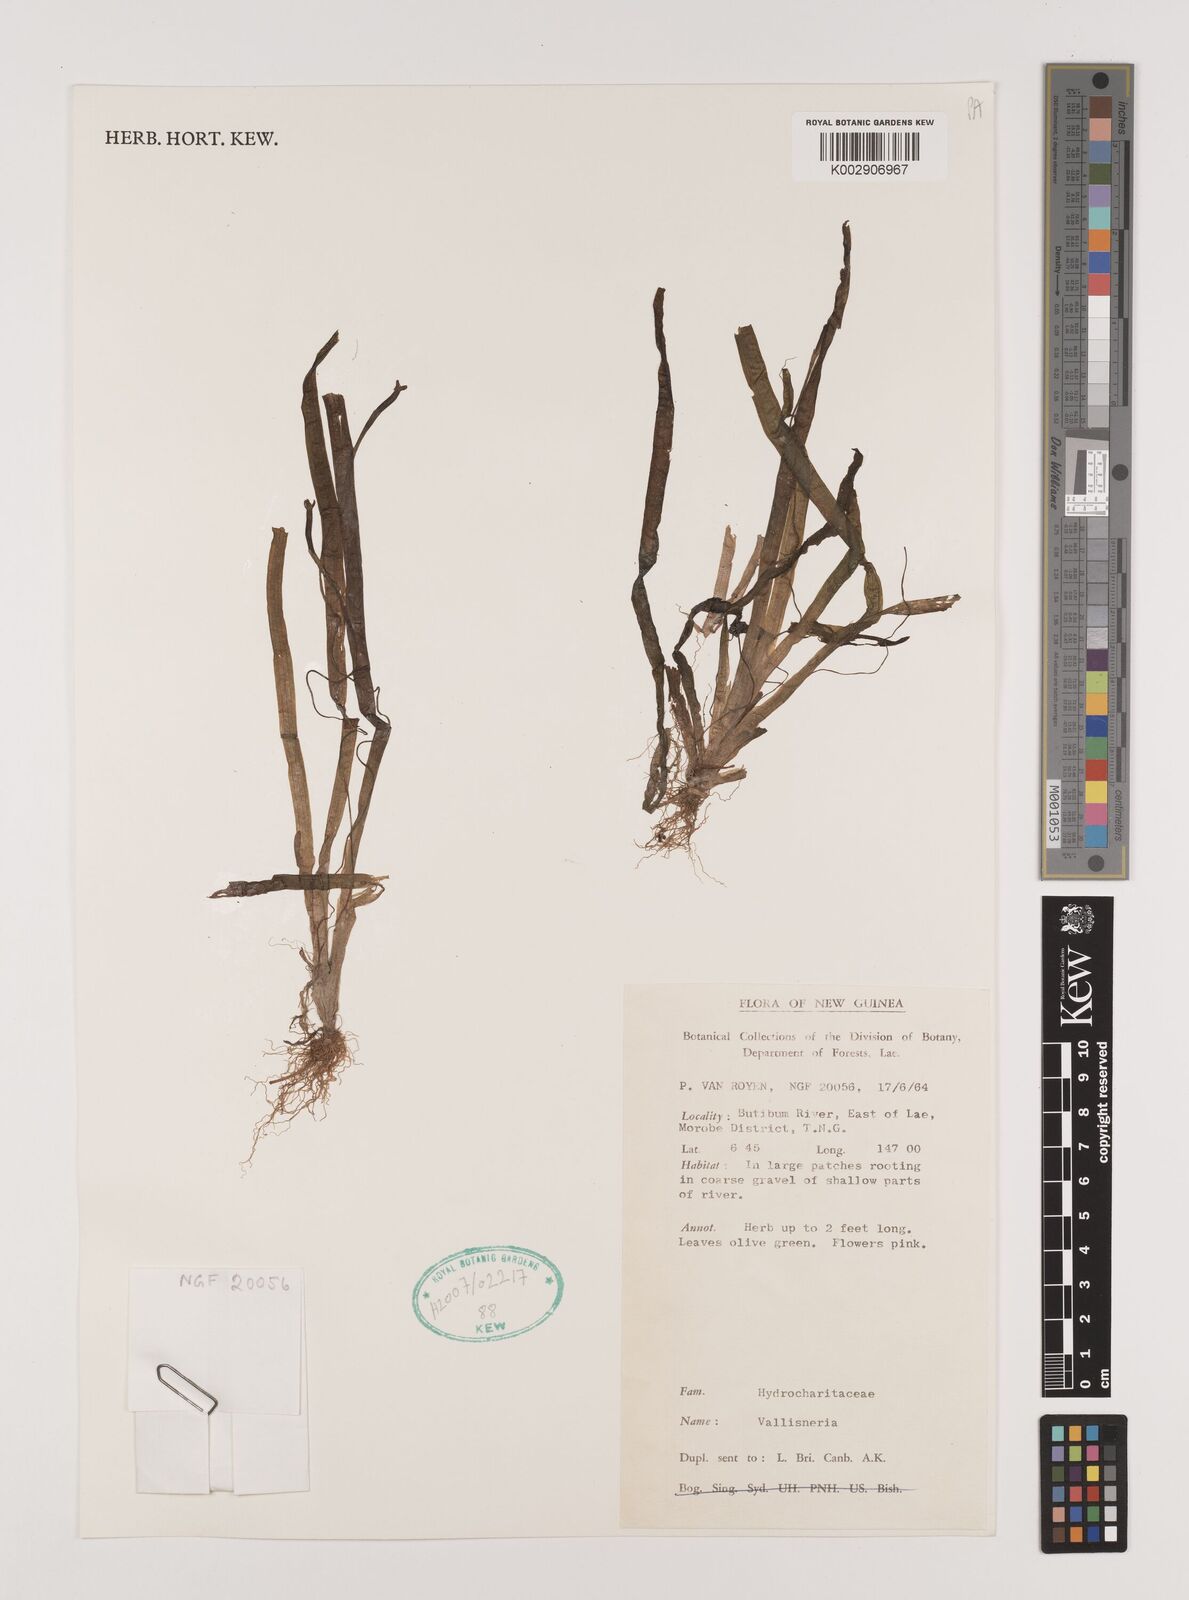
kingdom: Plantae
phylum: Tracheophyta
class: Liliopsida
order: Alismatales
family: Hydrocharitaceae
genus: Vallisneria
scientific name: Vallisneria
